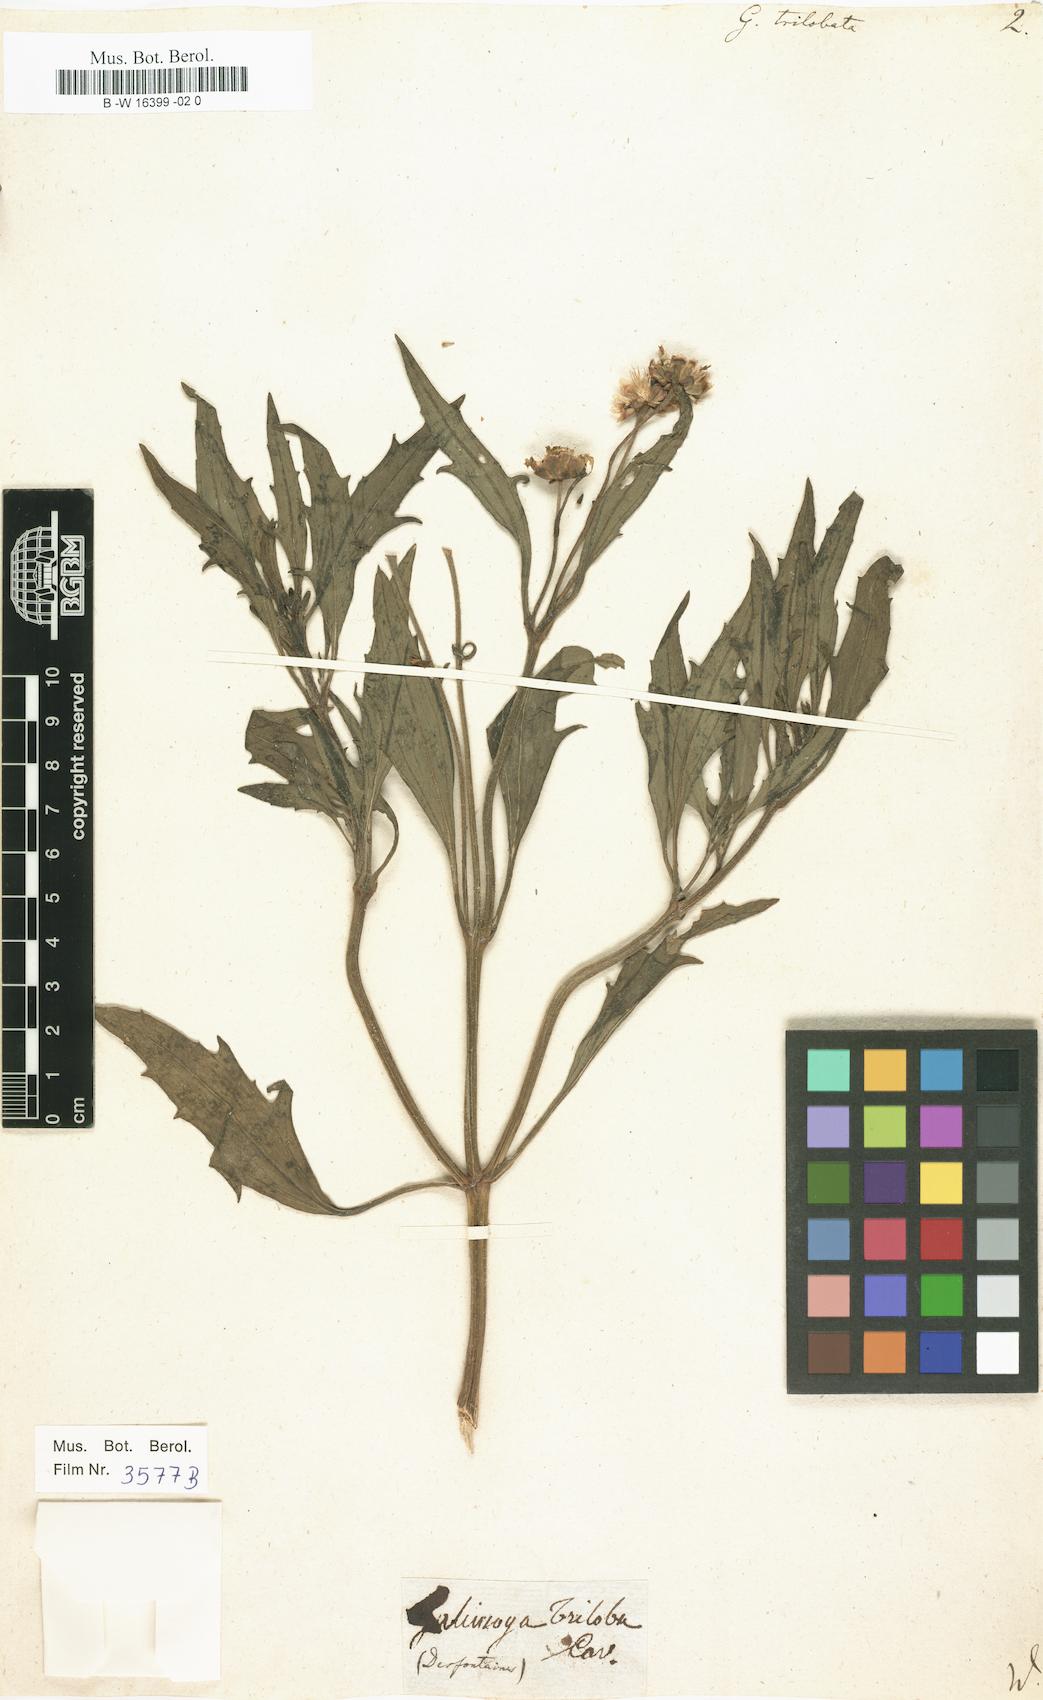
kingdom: Plantae
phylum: Tracheophyta
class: Magnoliopsida
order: Asterales
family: Asteraceae
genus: Tridax
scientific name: Tridax trilobata
